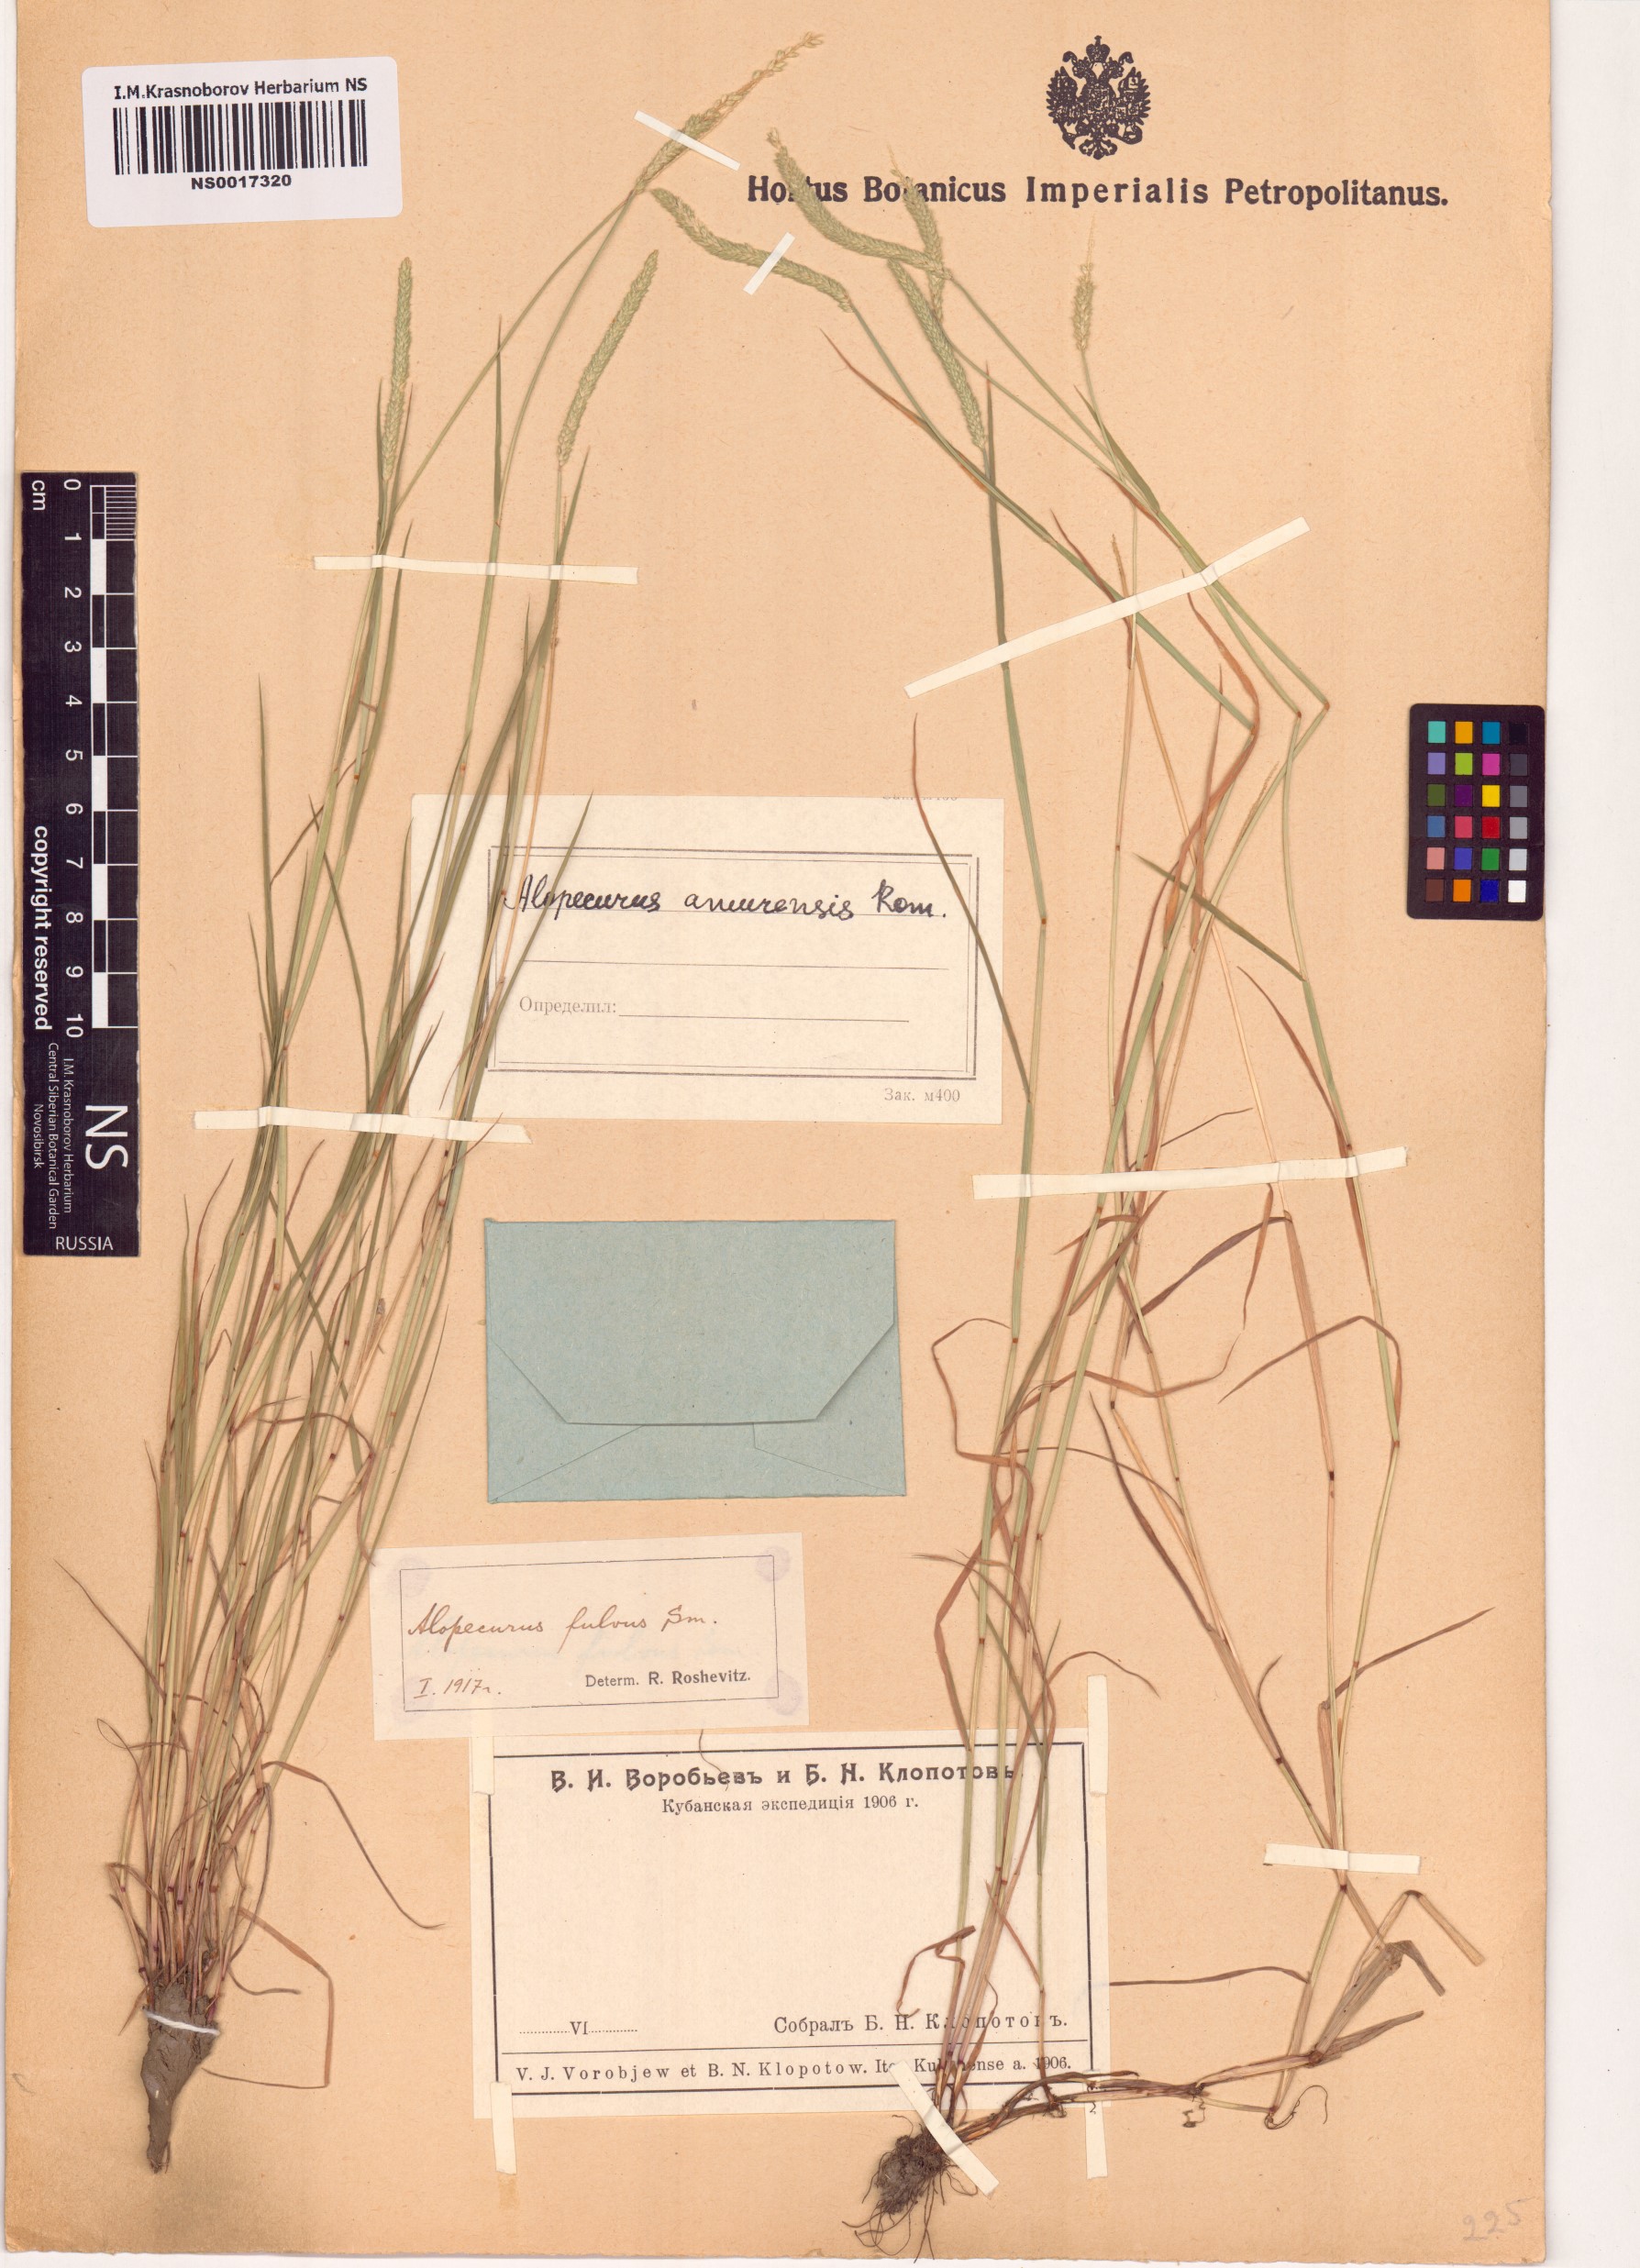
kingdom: Plantae
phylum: Tracheophyta
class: Liliopsida
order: Poales
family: Poaceae
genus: Alopecurus
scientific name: Alopecurus aequalis
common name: Orange foxtail
